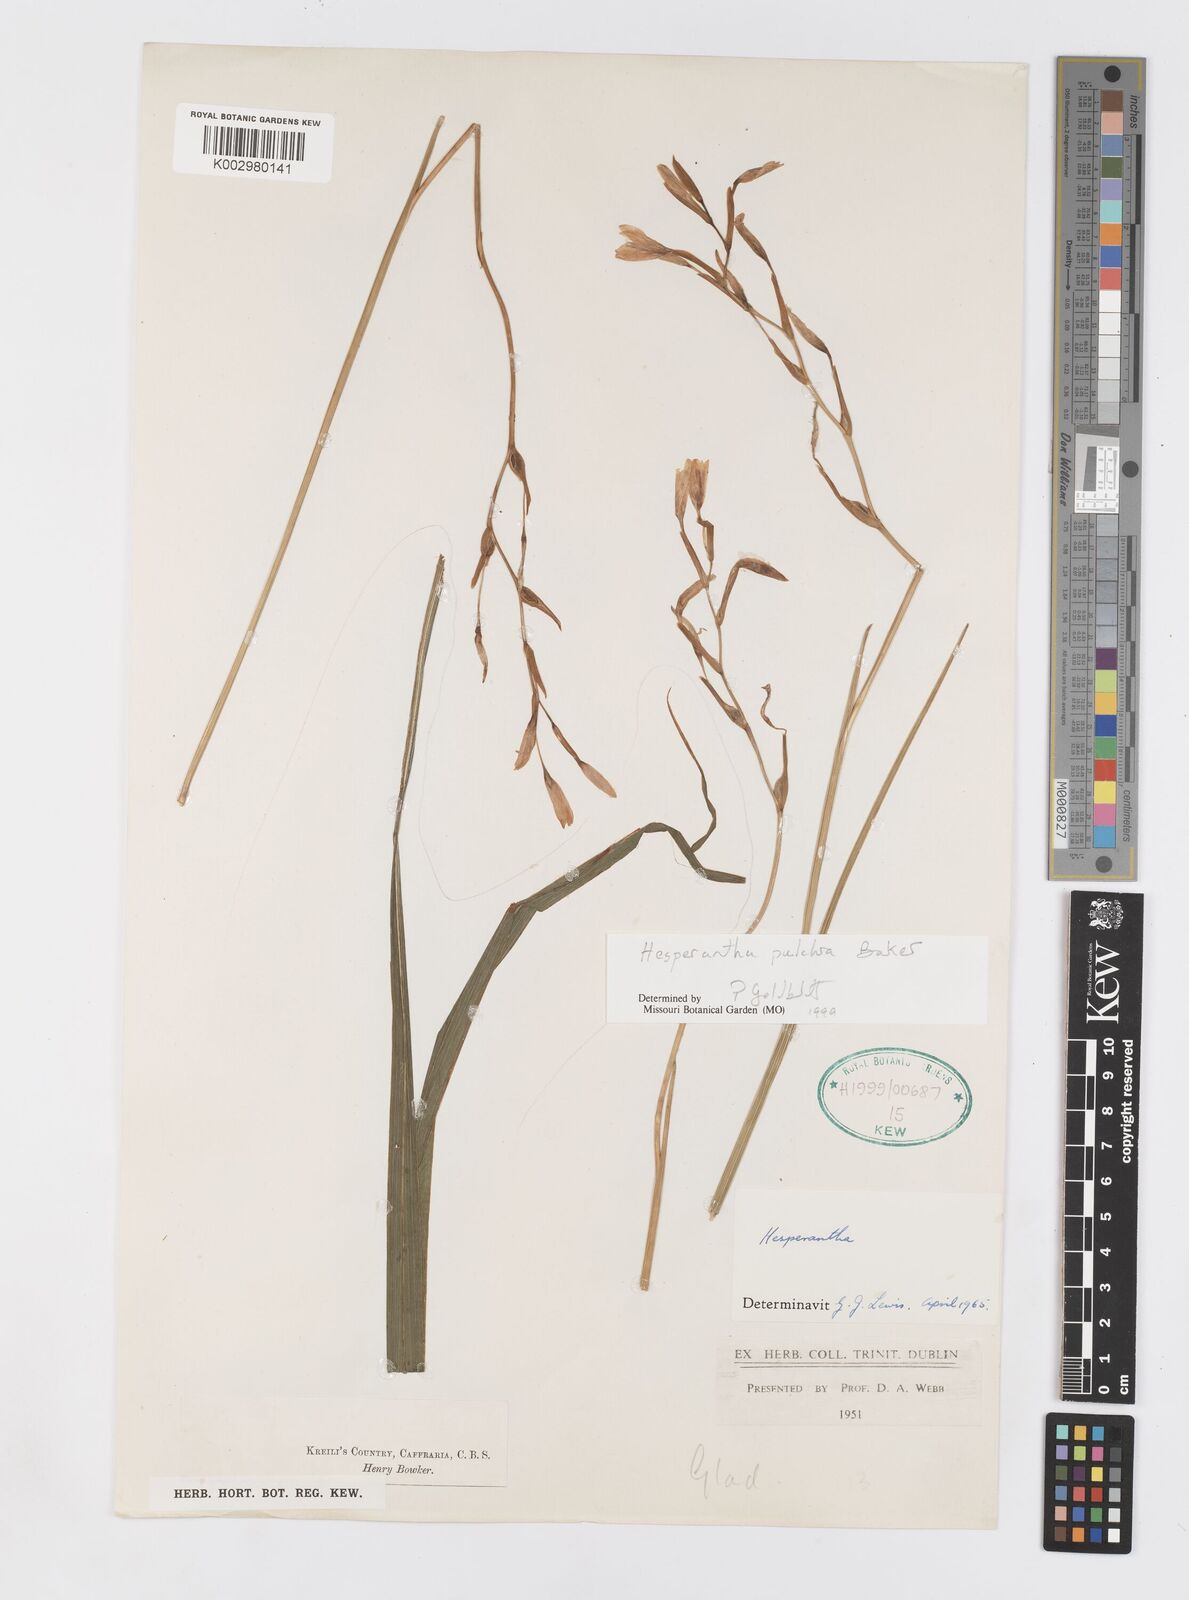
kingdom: Plantae
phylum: Tracheophyta
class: Liliopsida
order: Asparagales
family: Iridaceae
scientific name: Iridaceae
